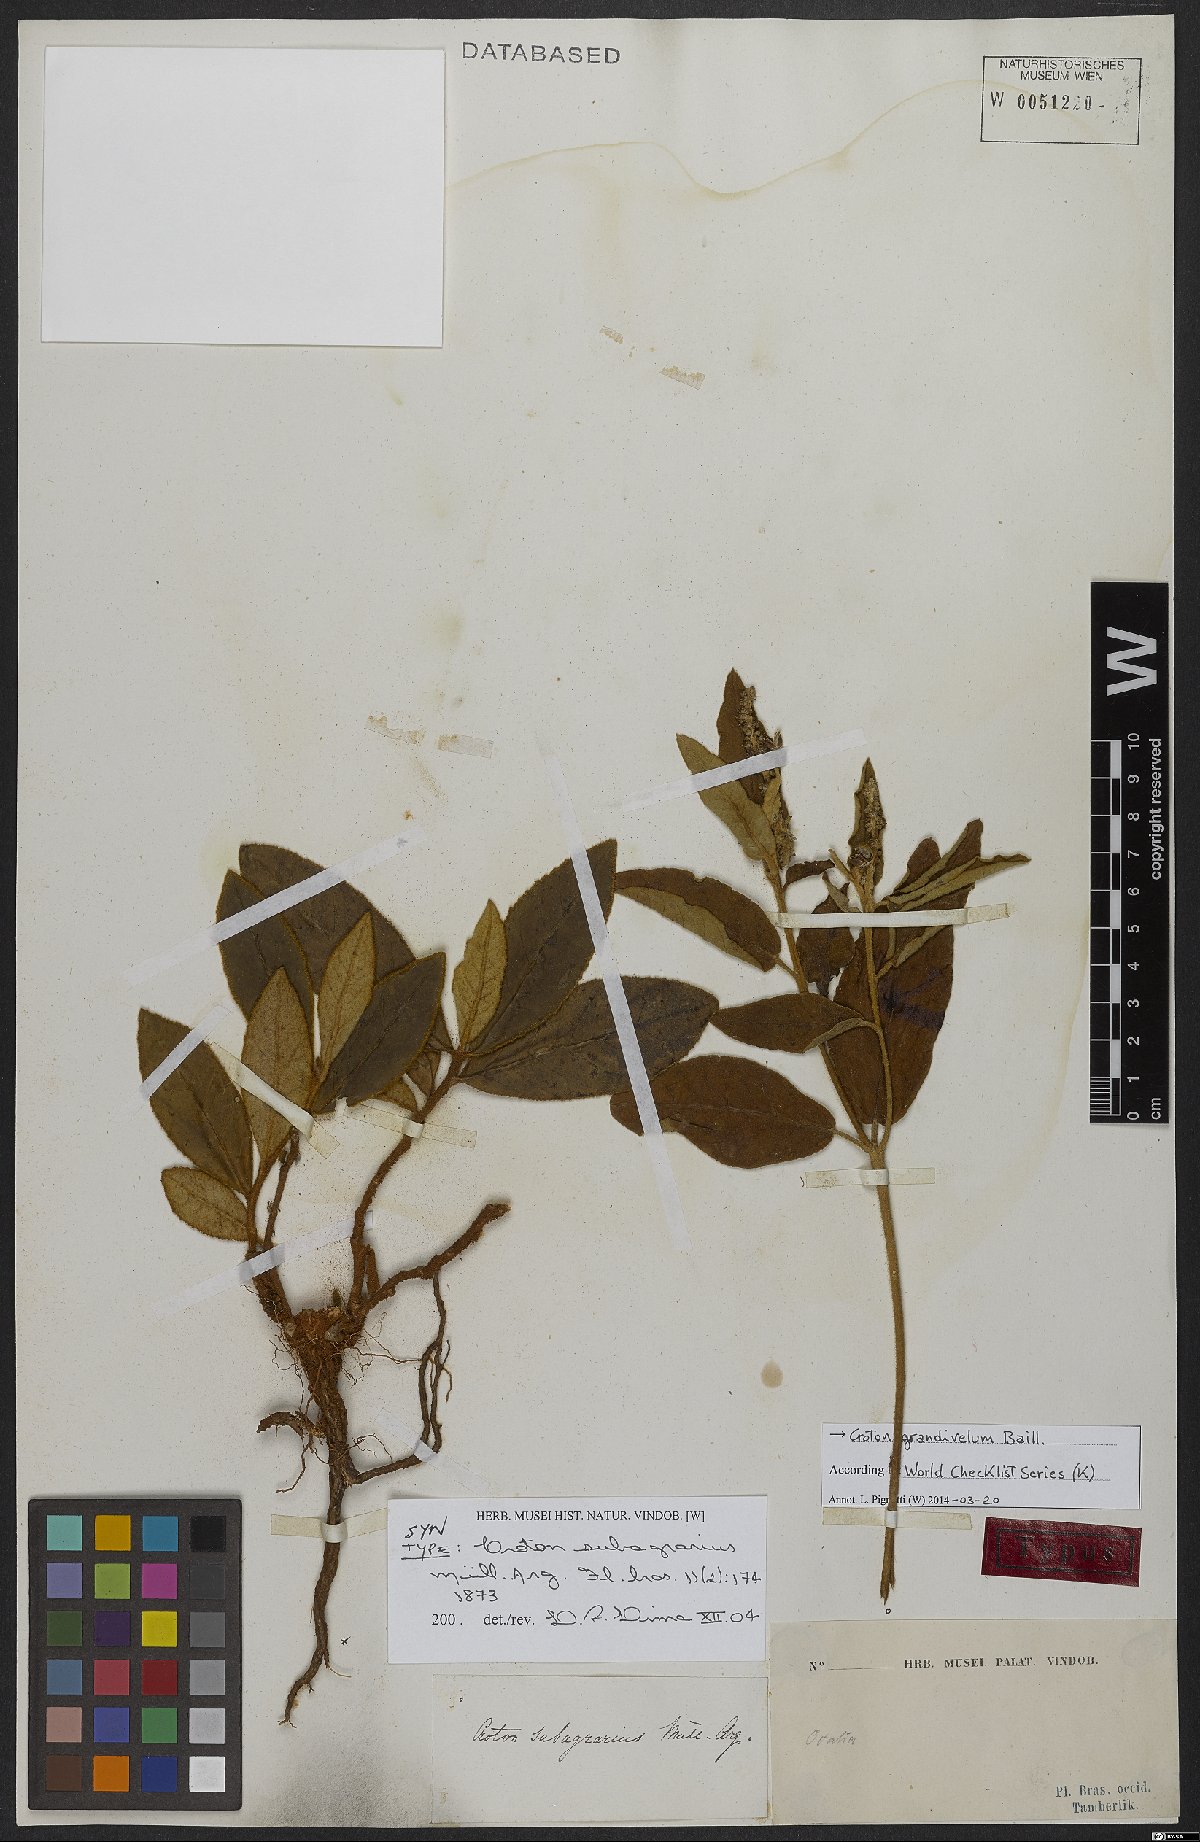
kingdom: Plantae
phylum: Tracheophyta
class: Magnoliopsida
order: Malpighiales
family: Euphorbiaceae
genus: Croton
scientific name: Croton grandivelum
